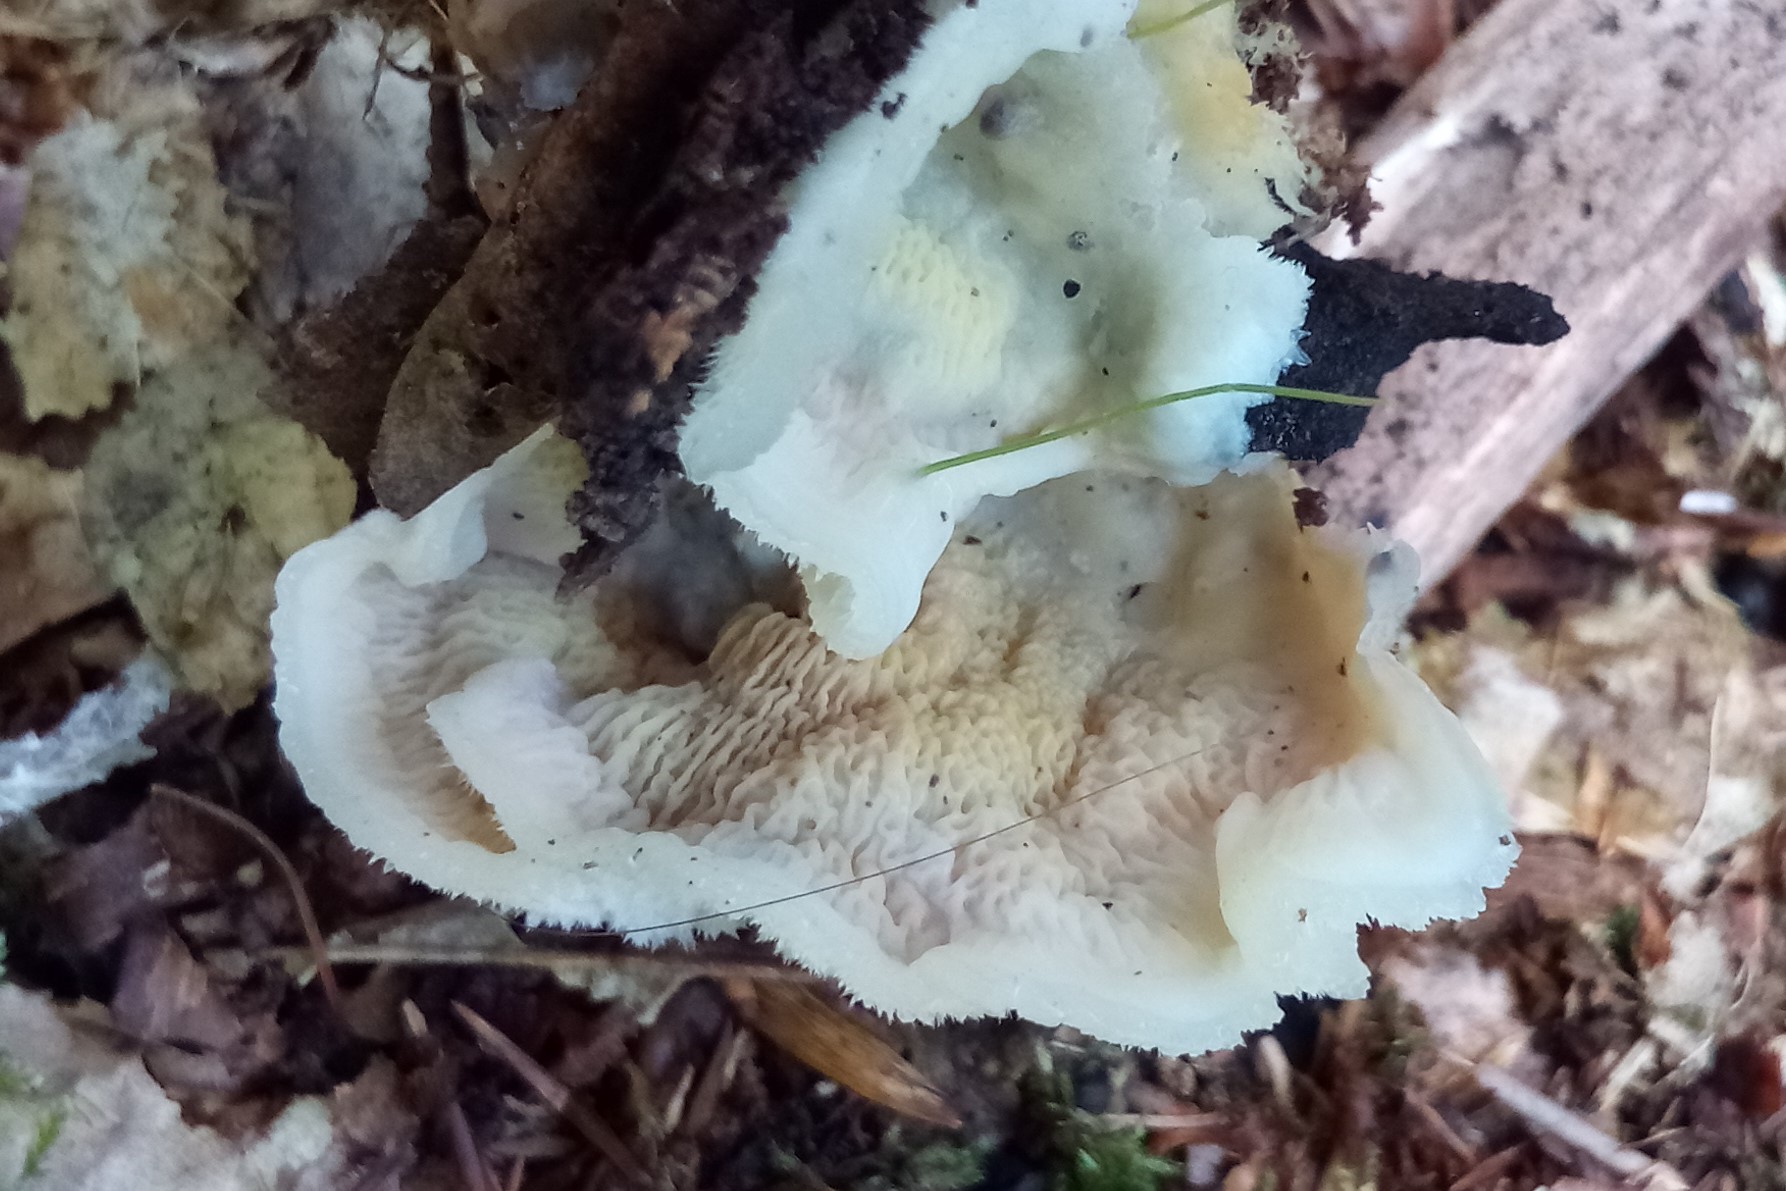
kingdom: Fungi
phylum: Basidiomycota
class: Agaricomycetes
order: Polyporales
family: Meruliaceae
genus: Phlebia
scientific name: Phlebia tremellosa
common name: bævrende åresvamp
